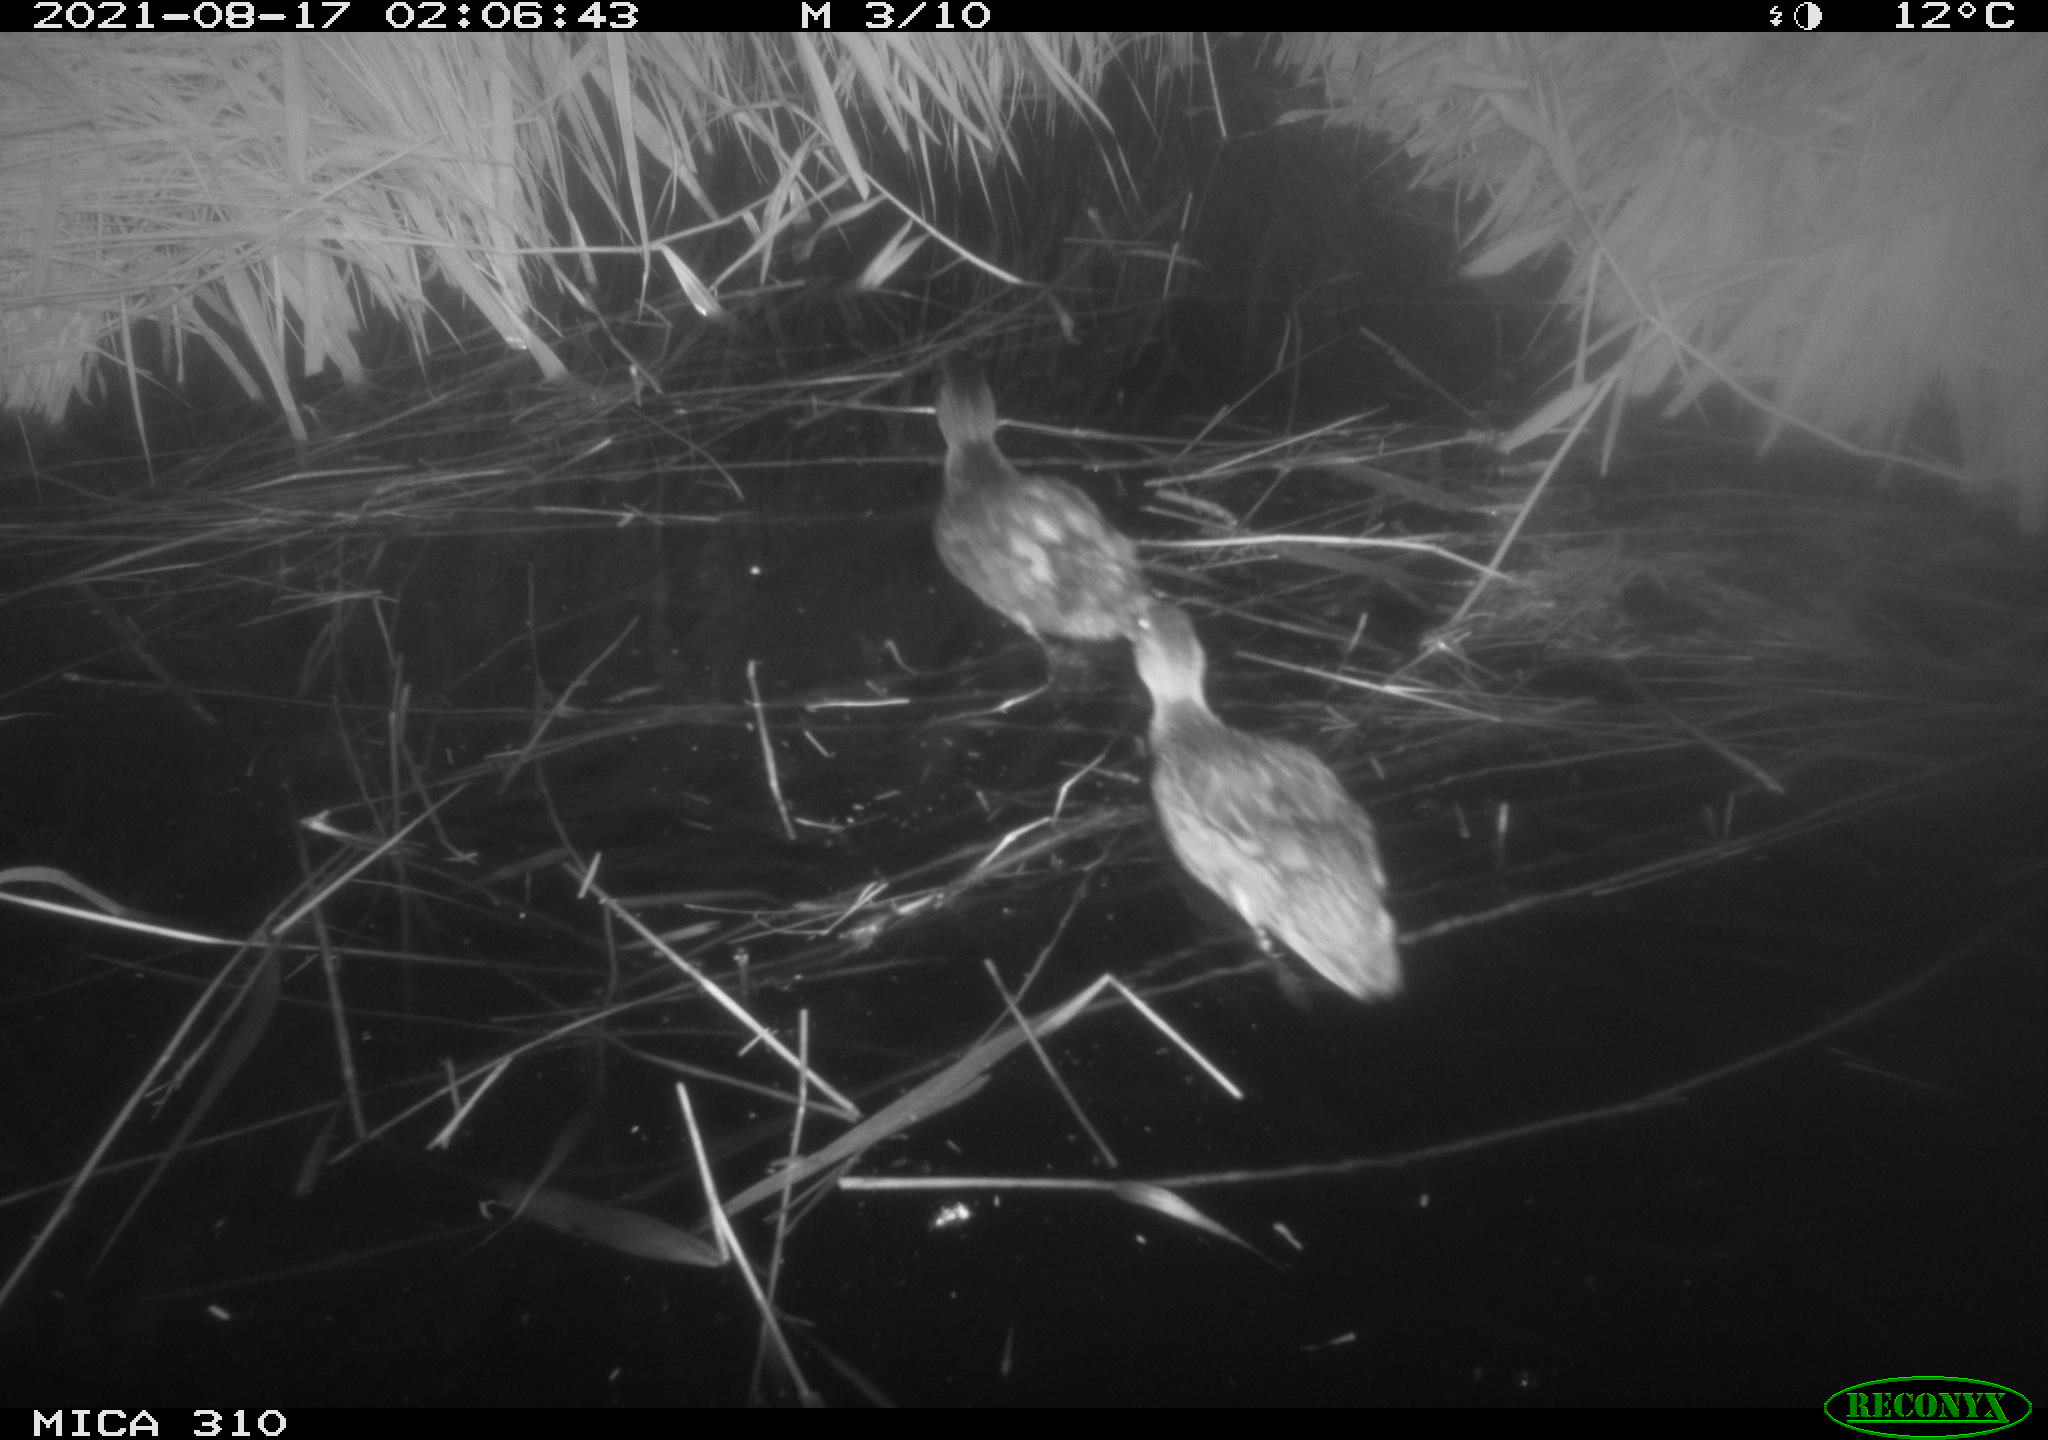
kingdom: Animalia
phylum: Chordata
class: Aves
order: Anseriformes
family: Anatidae
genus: Anas
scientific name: Anas platyrhynchos
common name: Mallard
